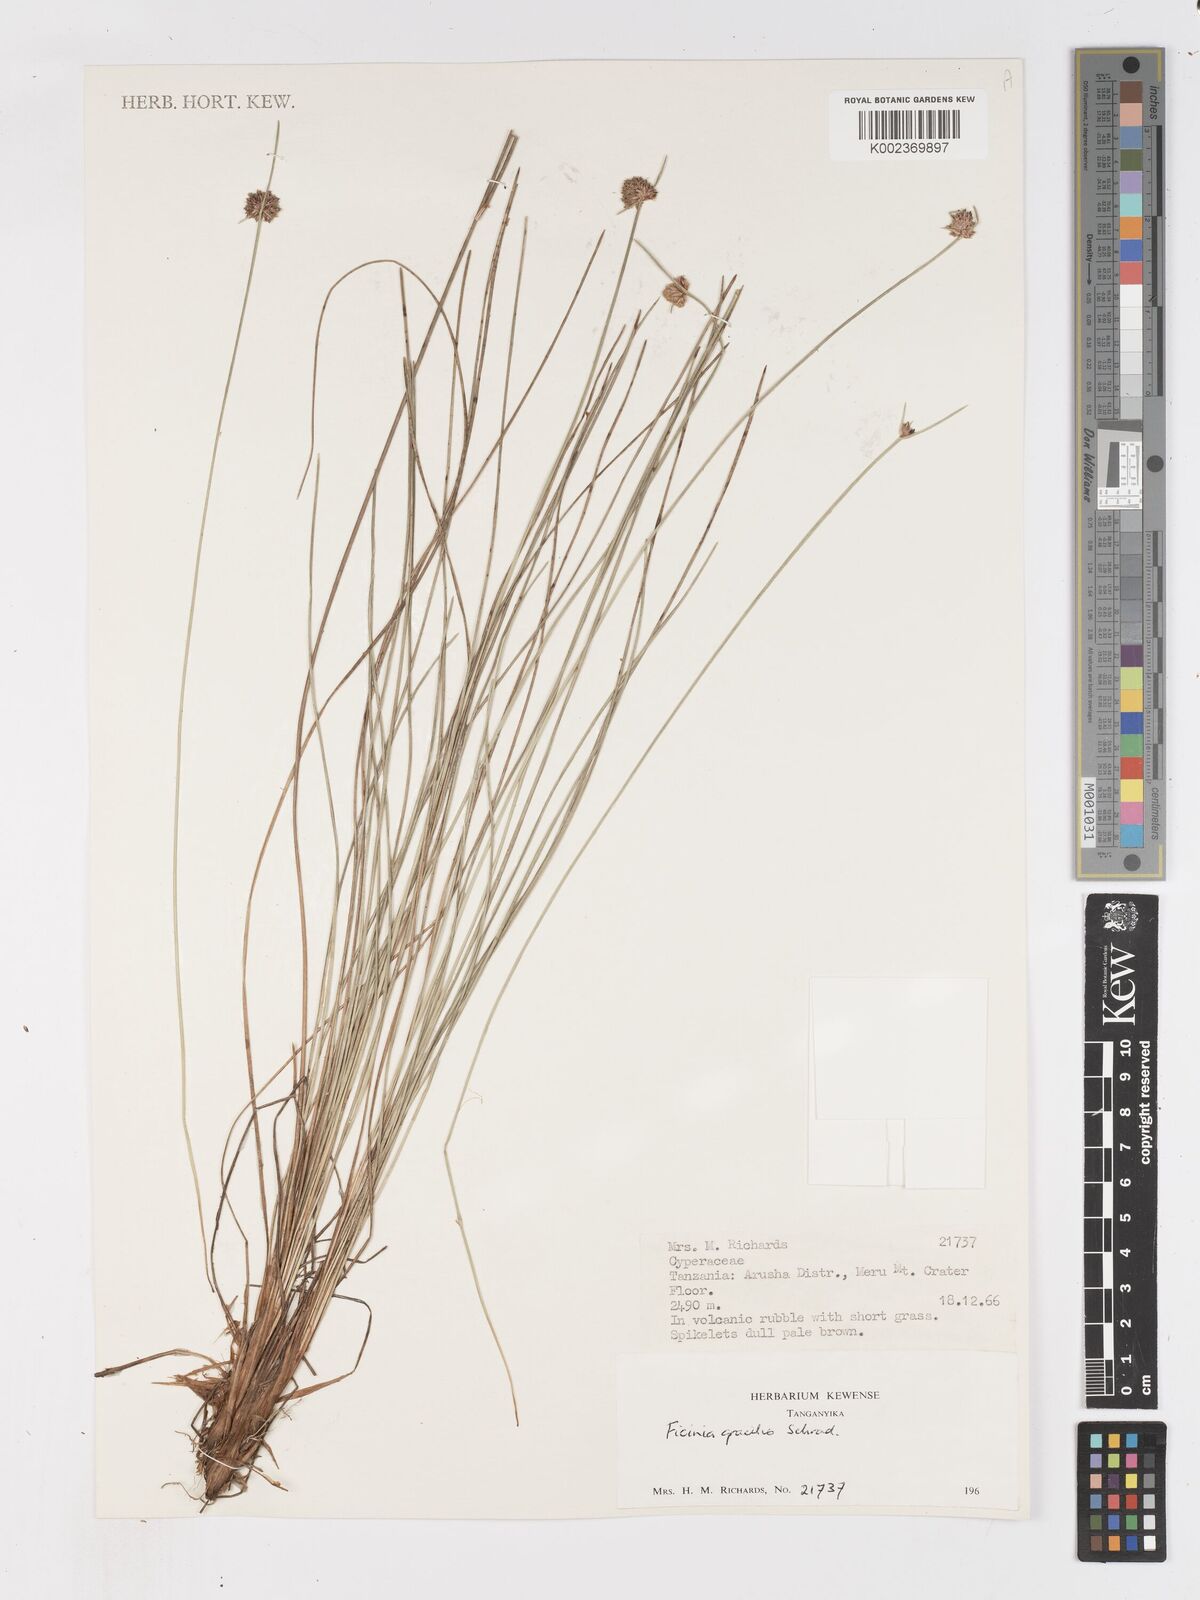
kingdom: Plantae
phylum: Tracheophyta
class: Liliopsida
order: Poales
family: Cyperaceae
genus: Ficinia
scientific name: Ficinia gracilis
